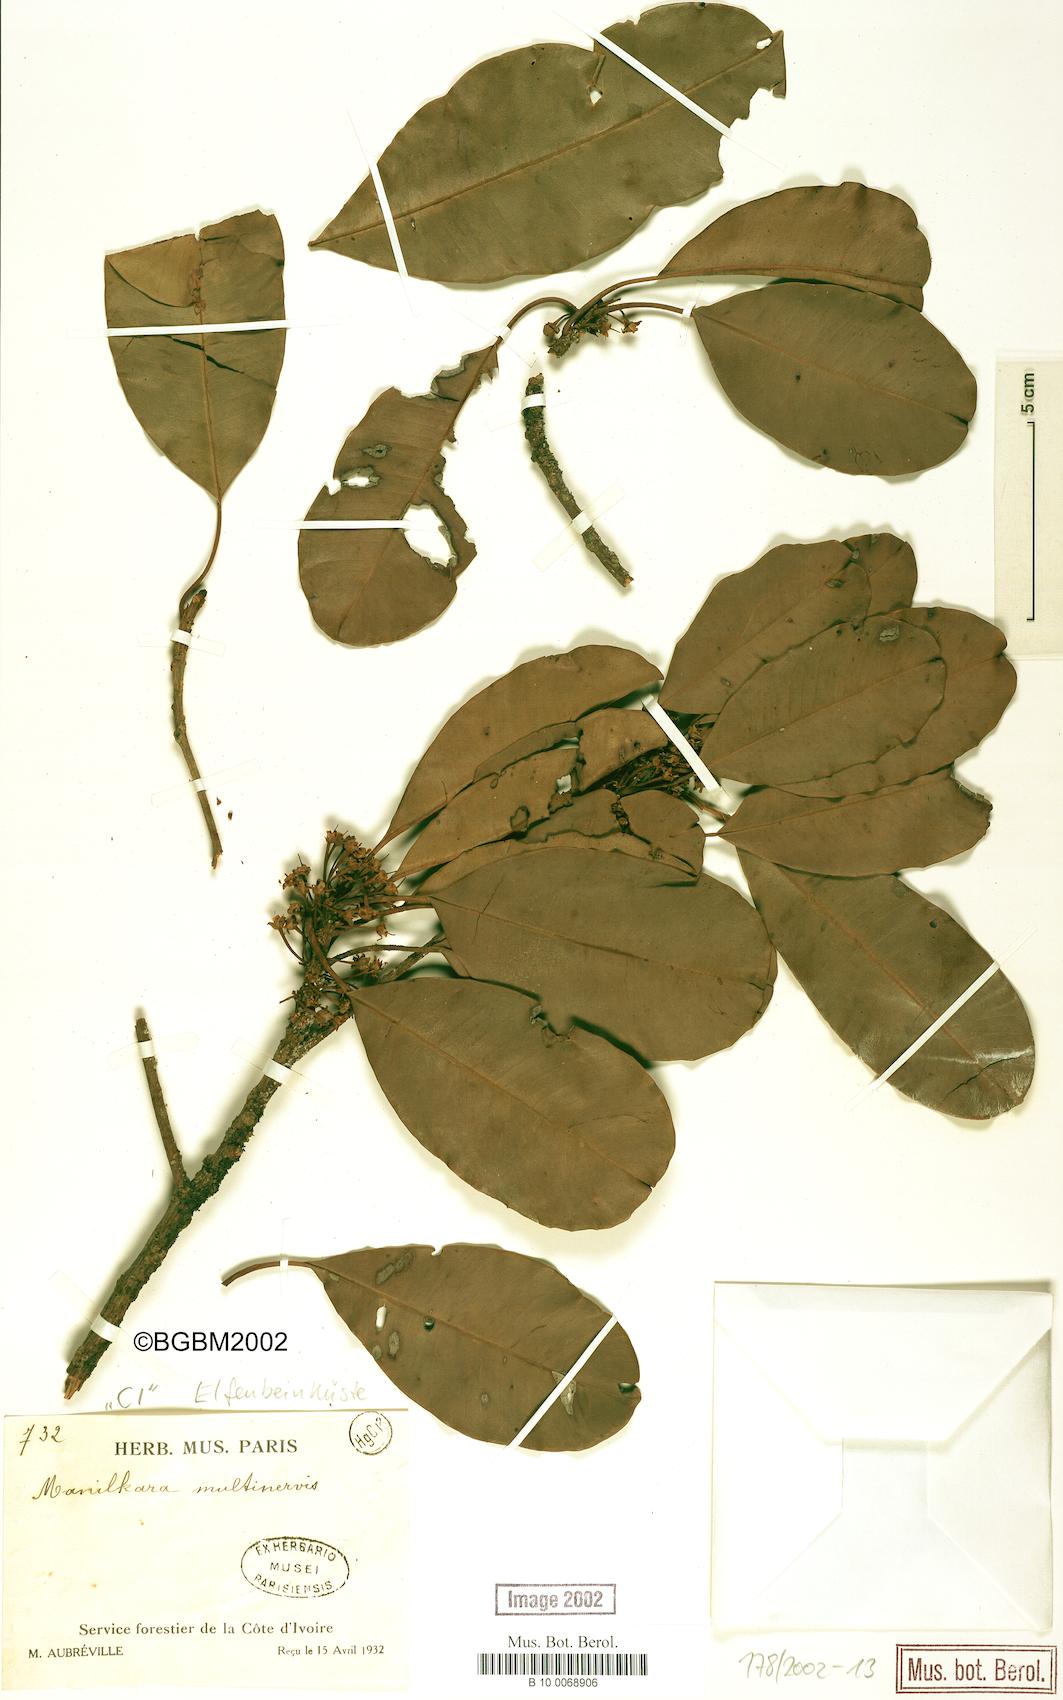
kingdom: Plantae
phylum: Tracheophyta
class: Magnoliopsida
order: Ericales
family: Sapotaceae
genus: Manilkara
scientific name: Manilkara obovata
